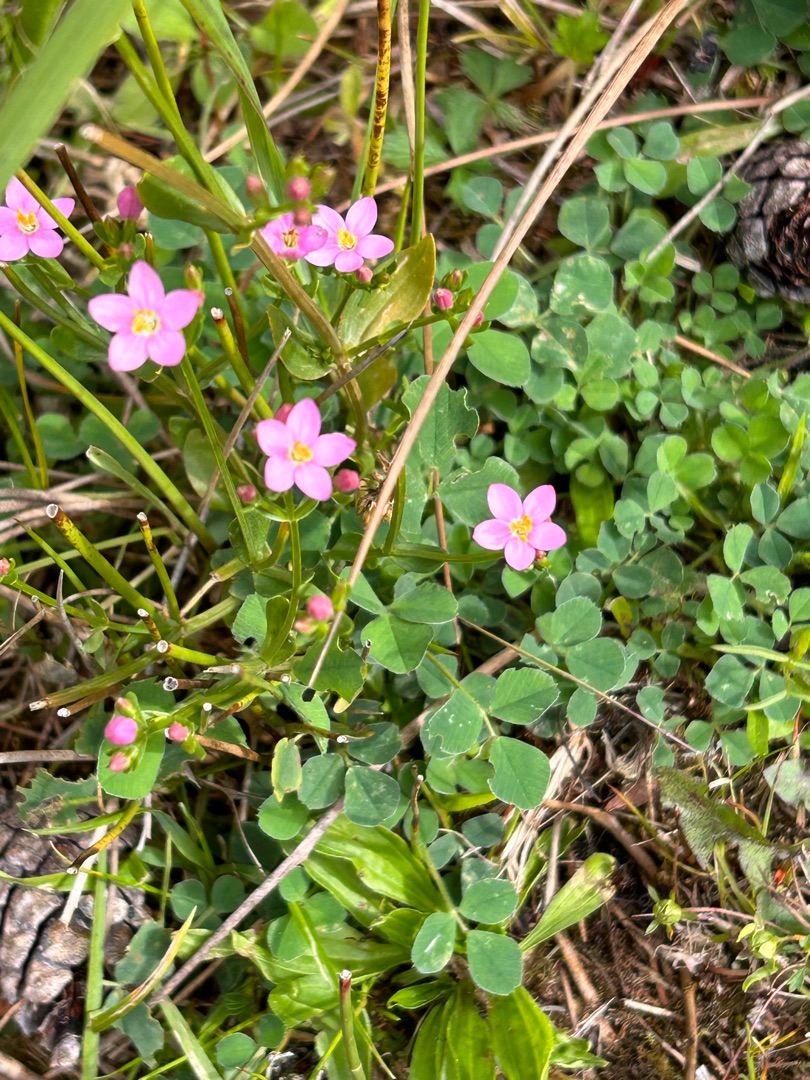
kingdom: Plantae
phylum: Tracheophyta
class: Magnoliopsida
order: Gentianales
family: Gentianaceae
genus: Centaurium
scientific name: Centaurium erythraea
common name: Mark-tusindgylden
